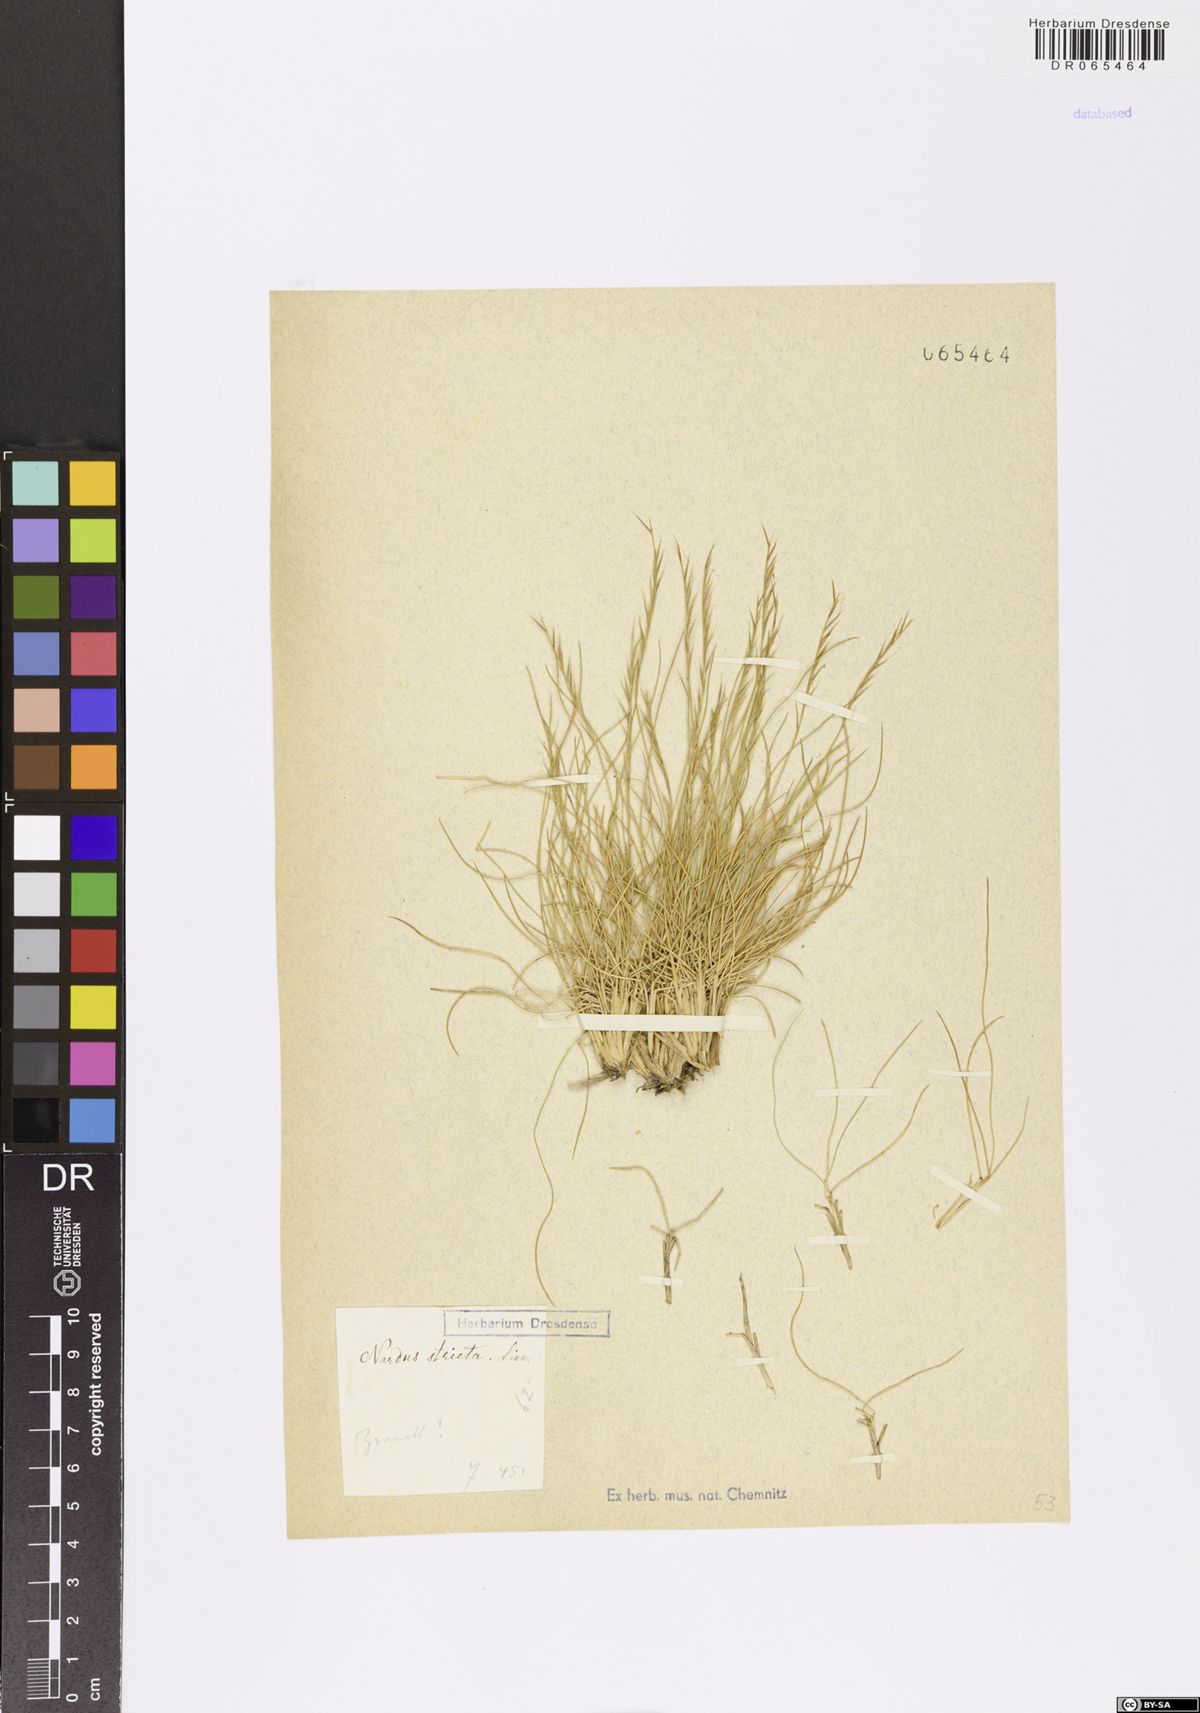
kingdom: Plantae
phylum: Tracheophyta
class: Liliopsida
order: Poales
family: Poaceae
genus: Nardus
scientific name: Nardus stricta
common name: Mat-grass
